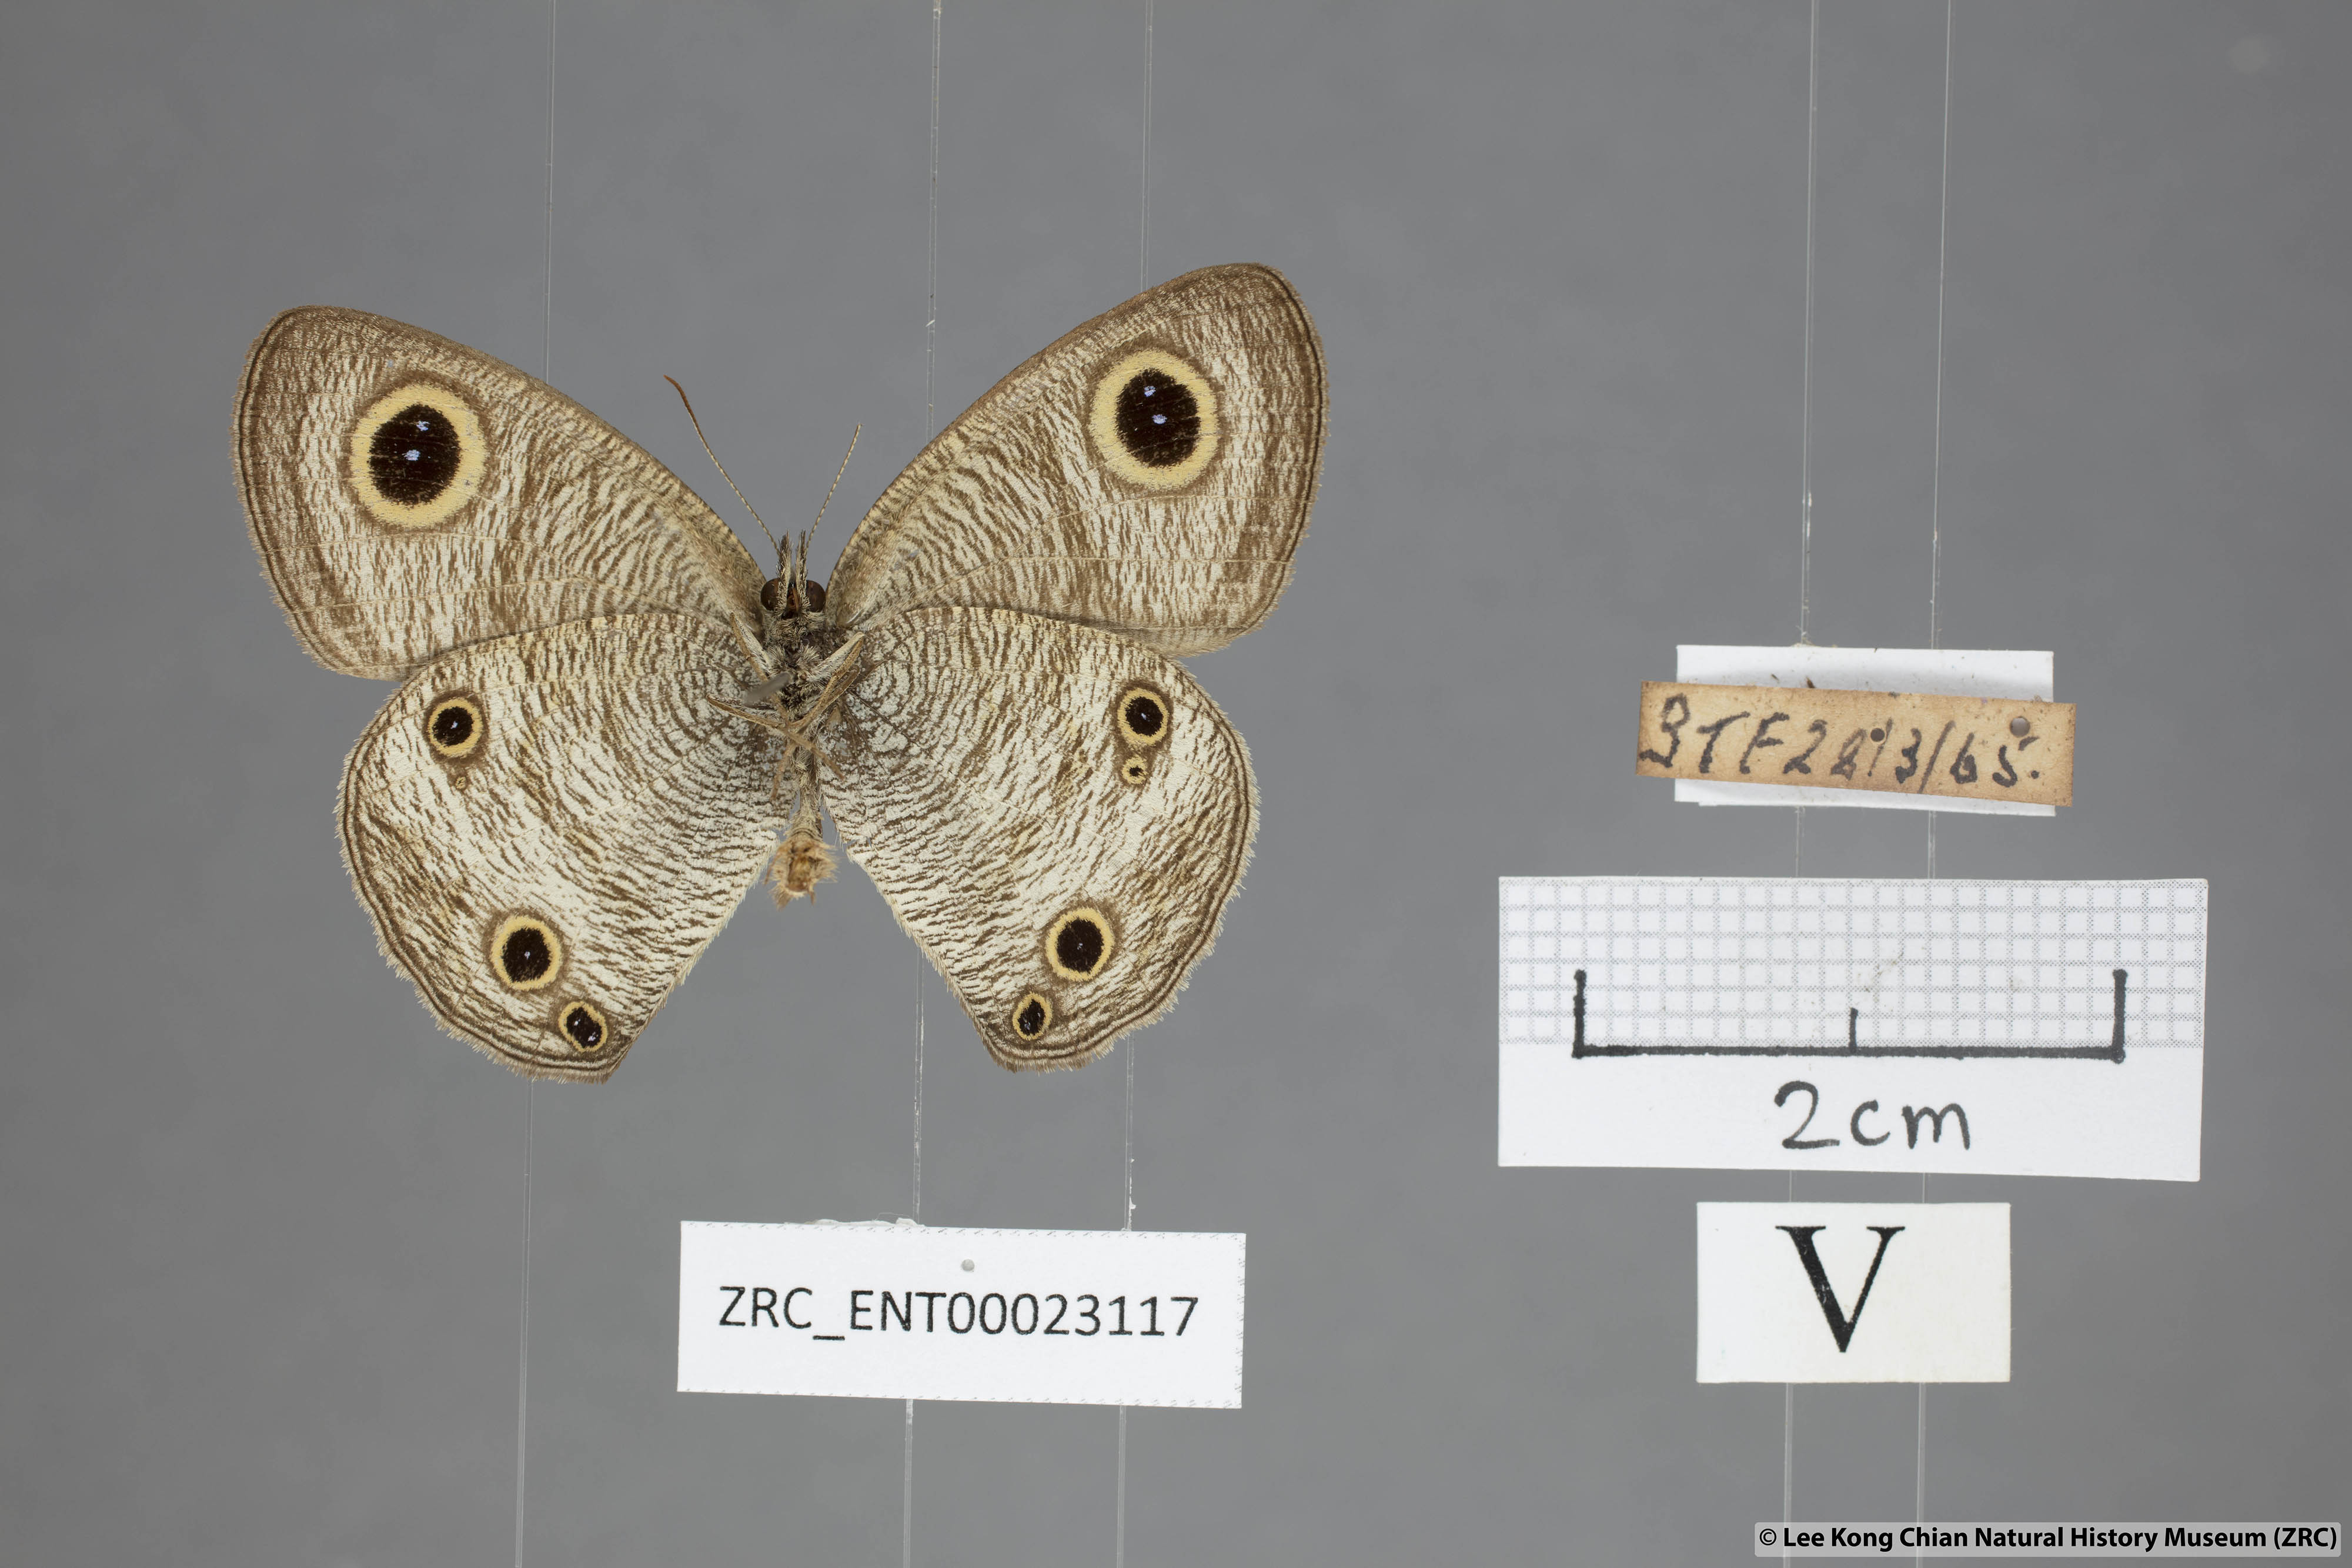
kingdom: Animalia
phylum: Arthropoda
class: Insecta
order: Lepidoptera
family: Nymphalidae
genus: Ypthima
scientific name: Ypthima pandocus
